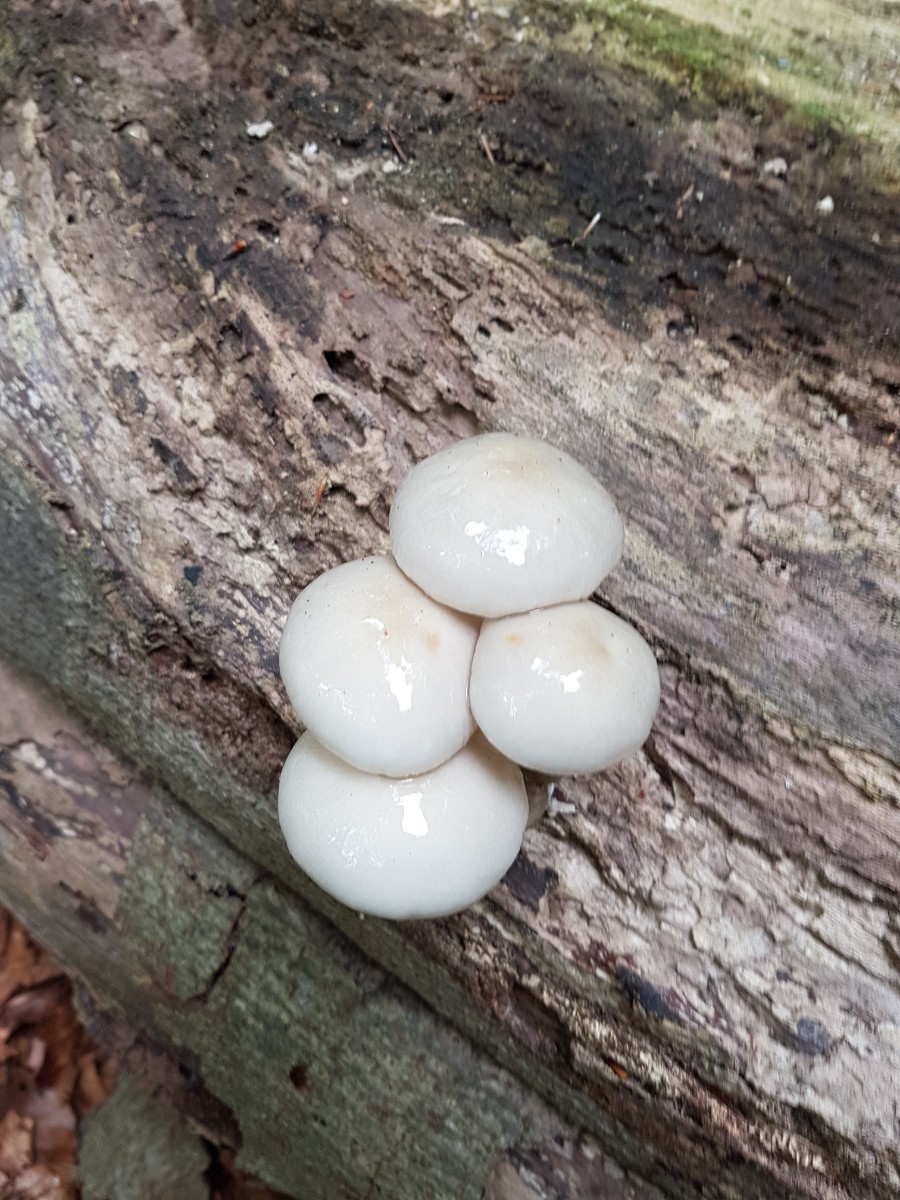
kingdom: Fungi
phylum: Basidiomycota
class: Agaricomycetes
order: Agaricales
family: Physalacriaceae
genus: Mucidula
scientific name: Mucidula mucida
